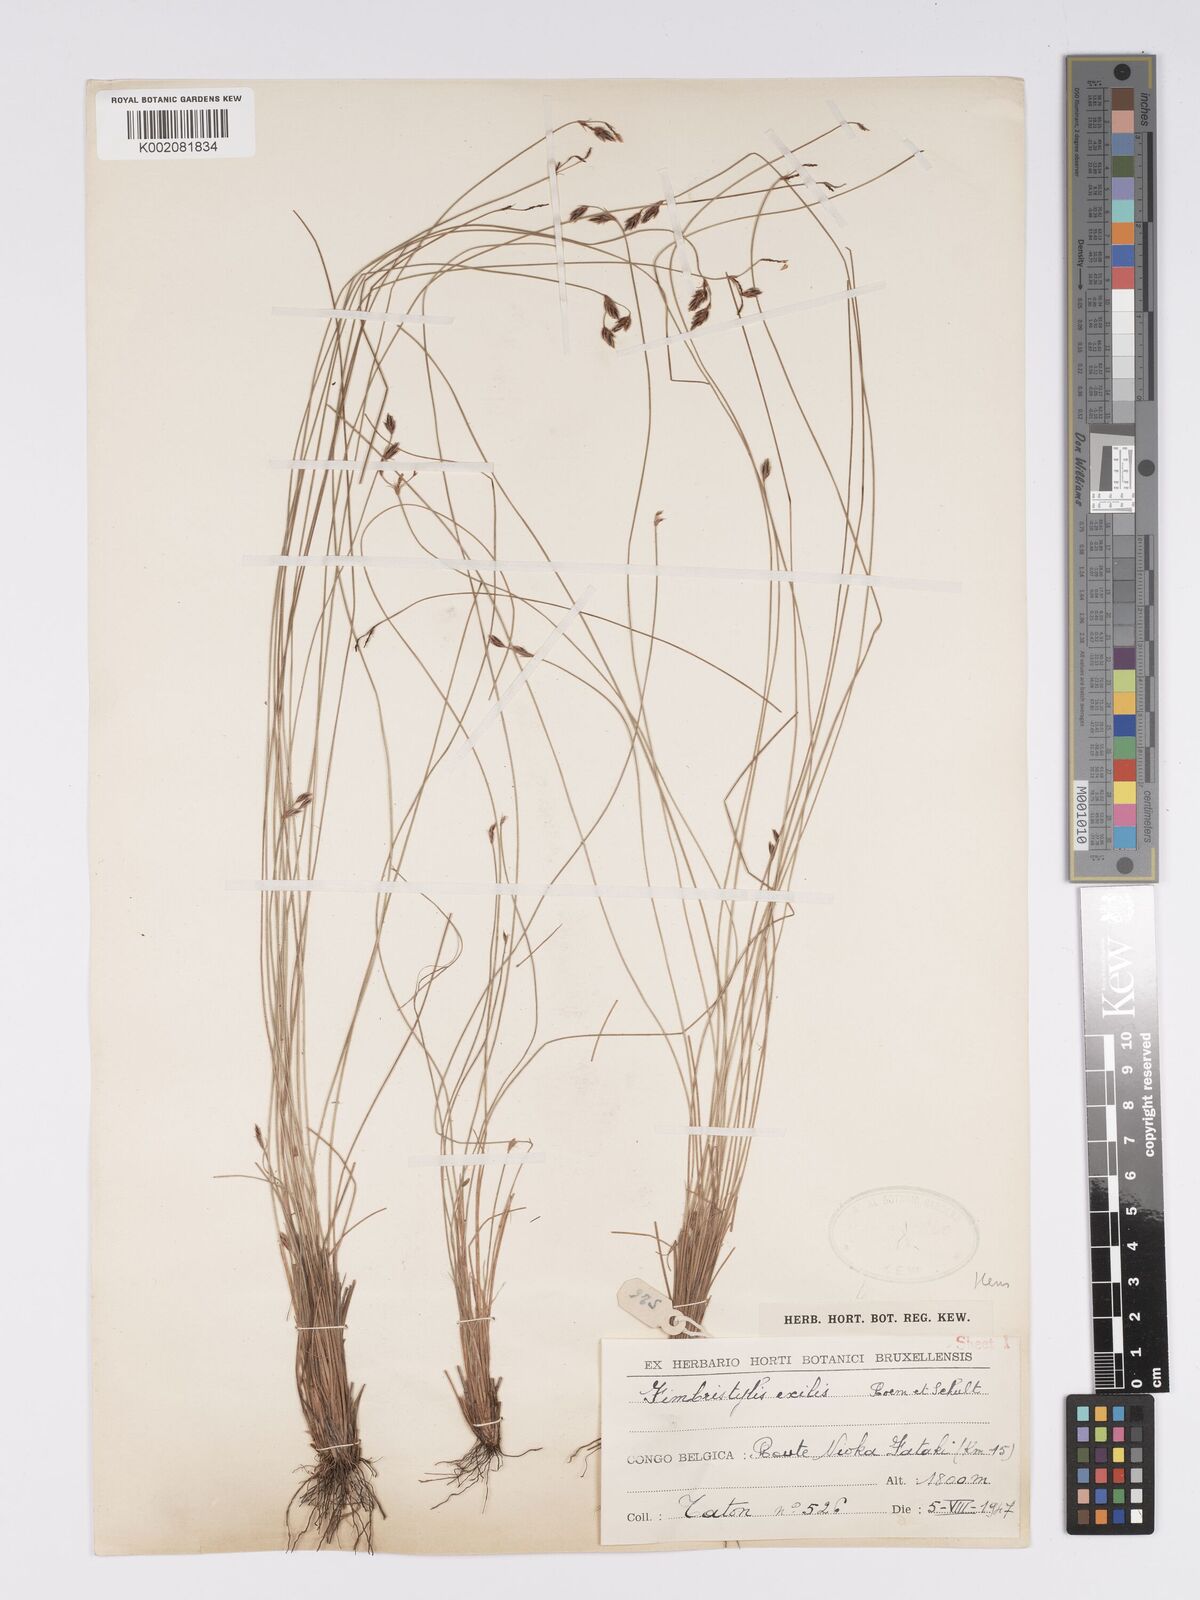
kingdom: Plantae
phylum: Tracheophyta
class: Liliopsida
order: Poales
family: Cyperaceae
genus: Bulbostylis
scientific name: Bulbostylis hispidula
